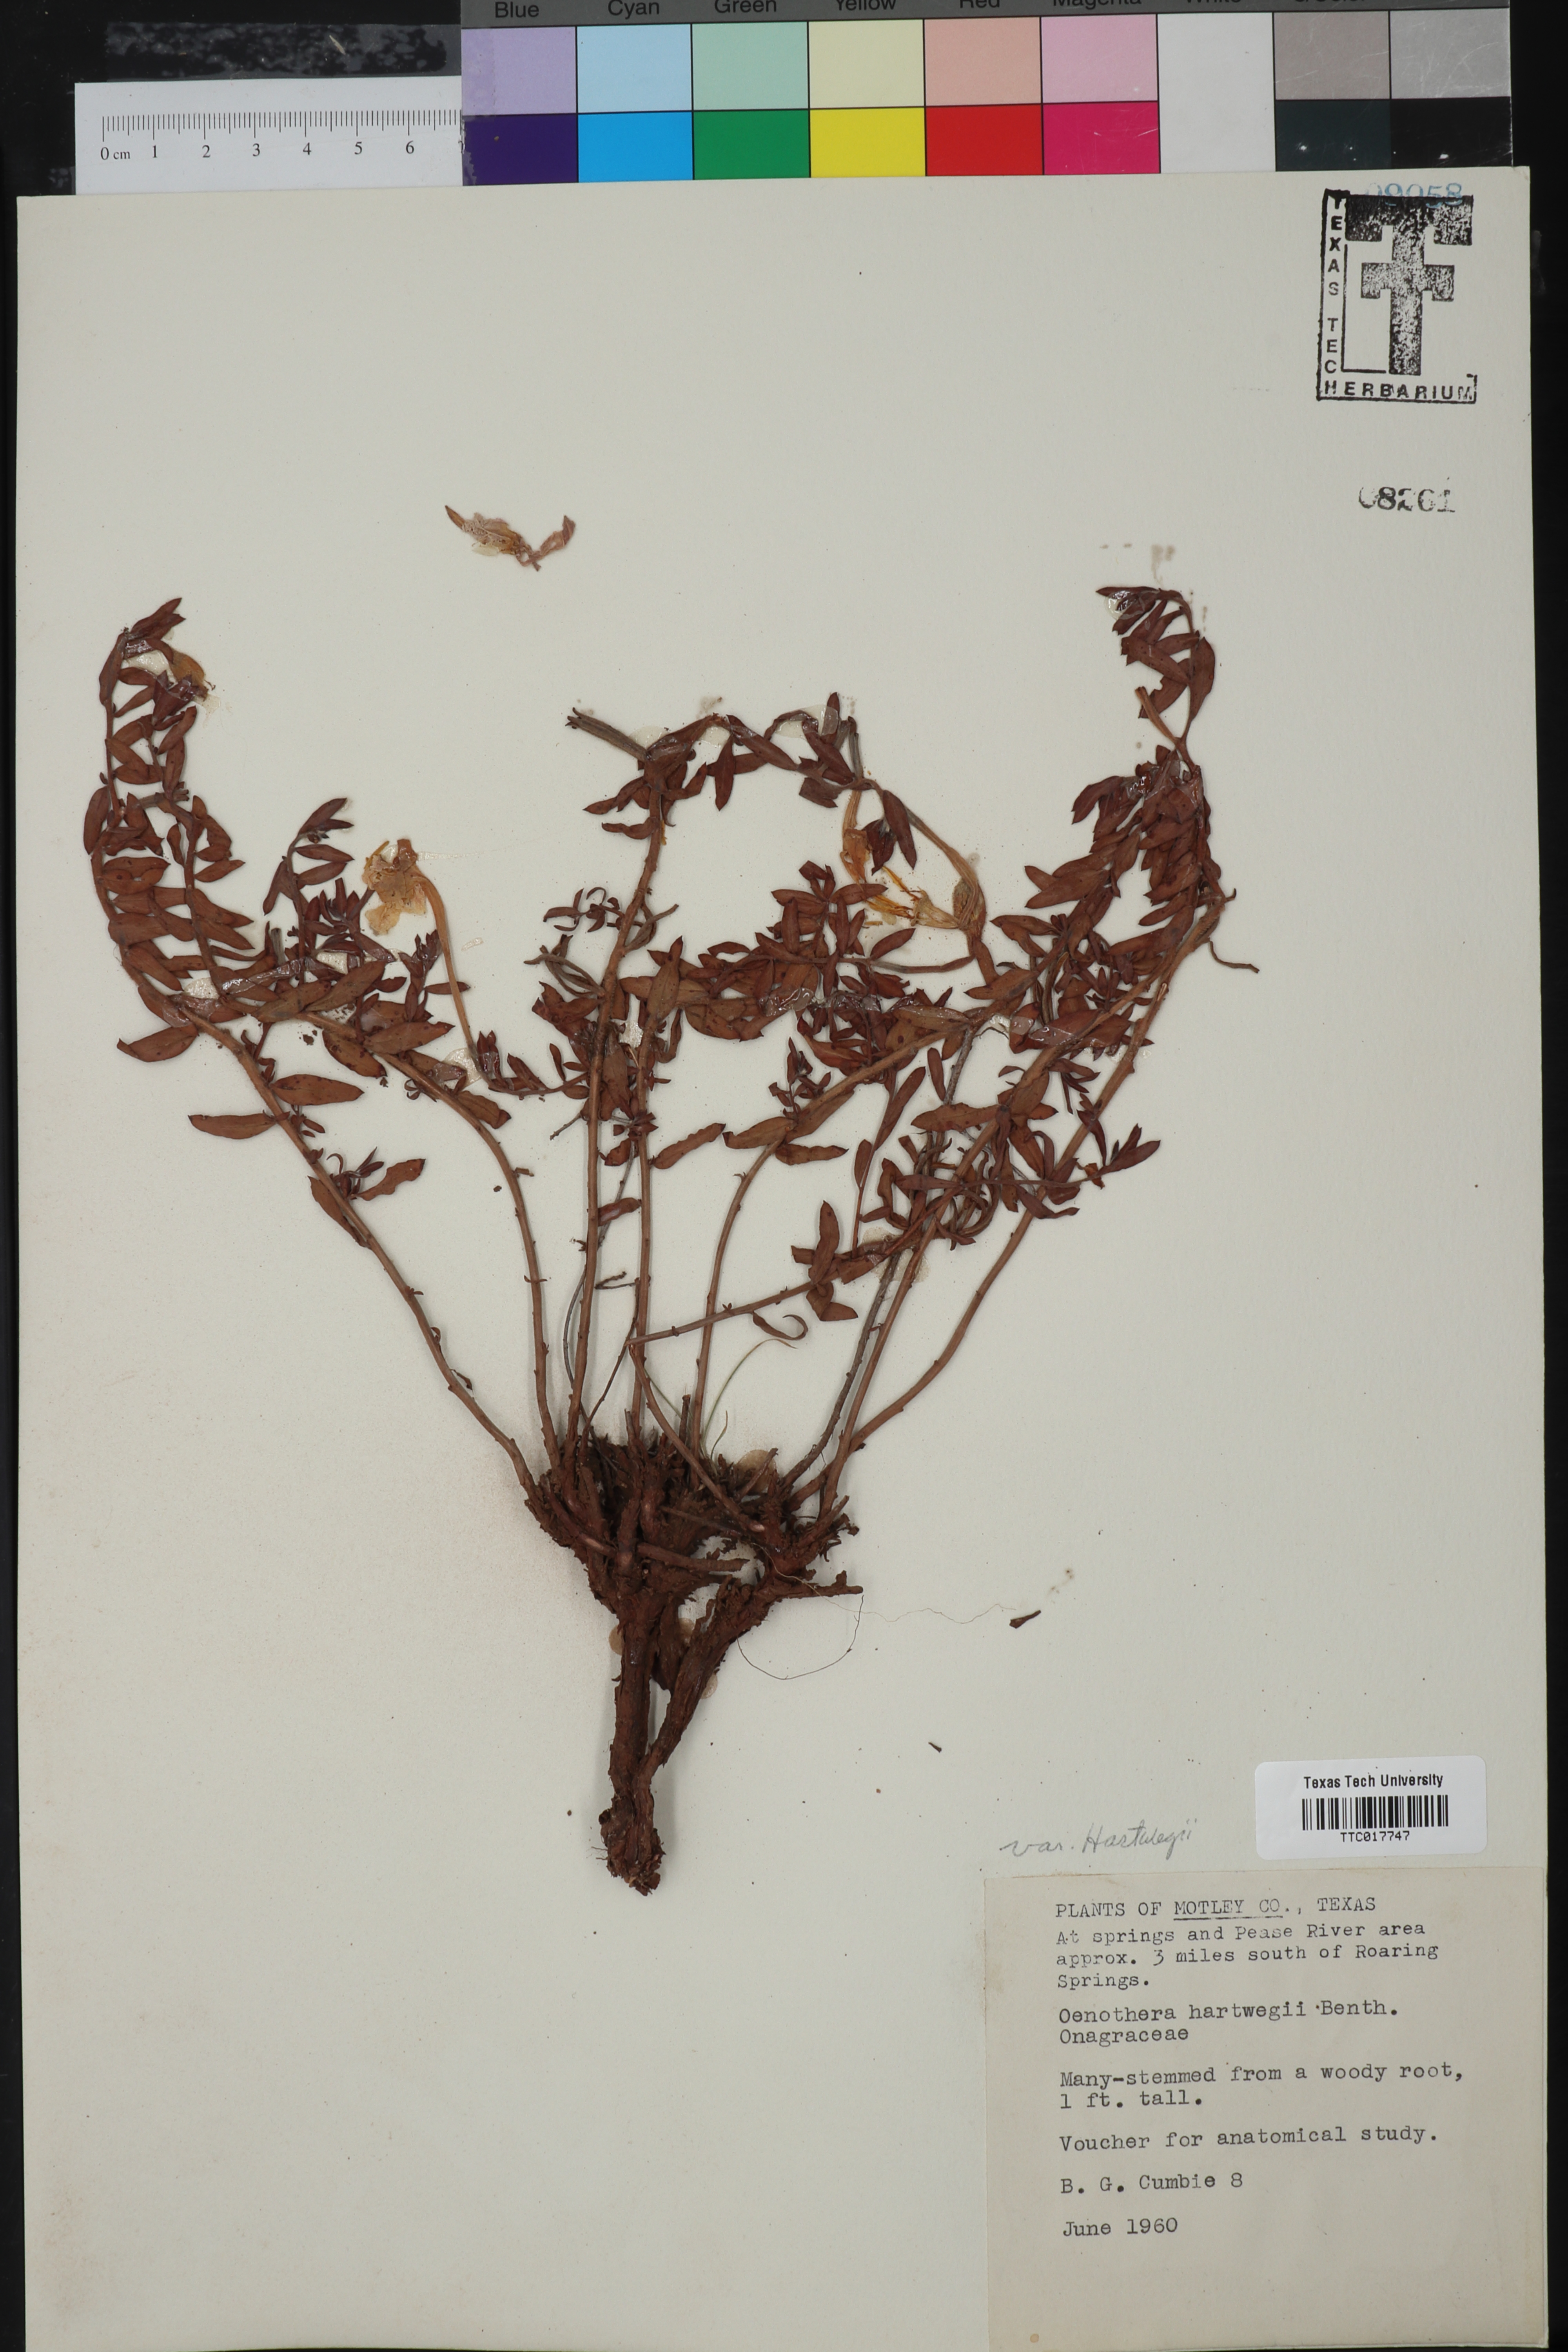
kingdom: Plantae
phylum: Tracheophyta
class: Magnoliopsida
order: Myrtales
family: Onagraceae
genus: Oenothera
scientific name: Oenothera hartwegii
